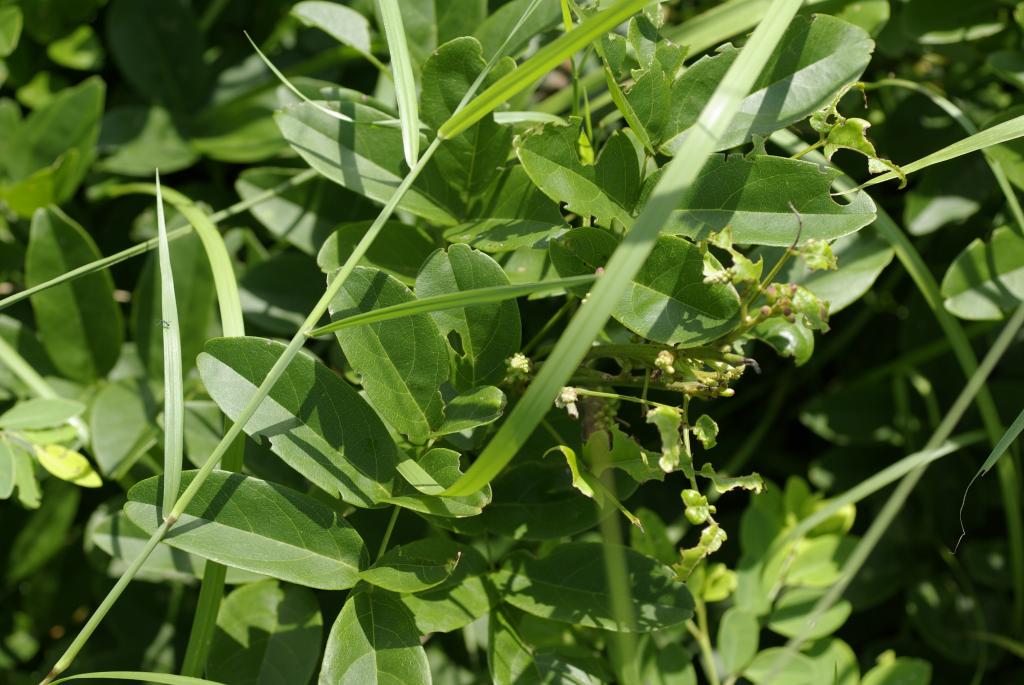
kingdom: Plantae
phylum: Tracheophyta
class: Magnoliopsida
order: Fabales
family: Fabaceae
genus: Wisteriopsis
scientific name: Wisteriopsis reticulata
